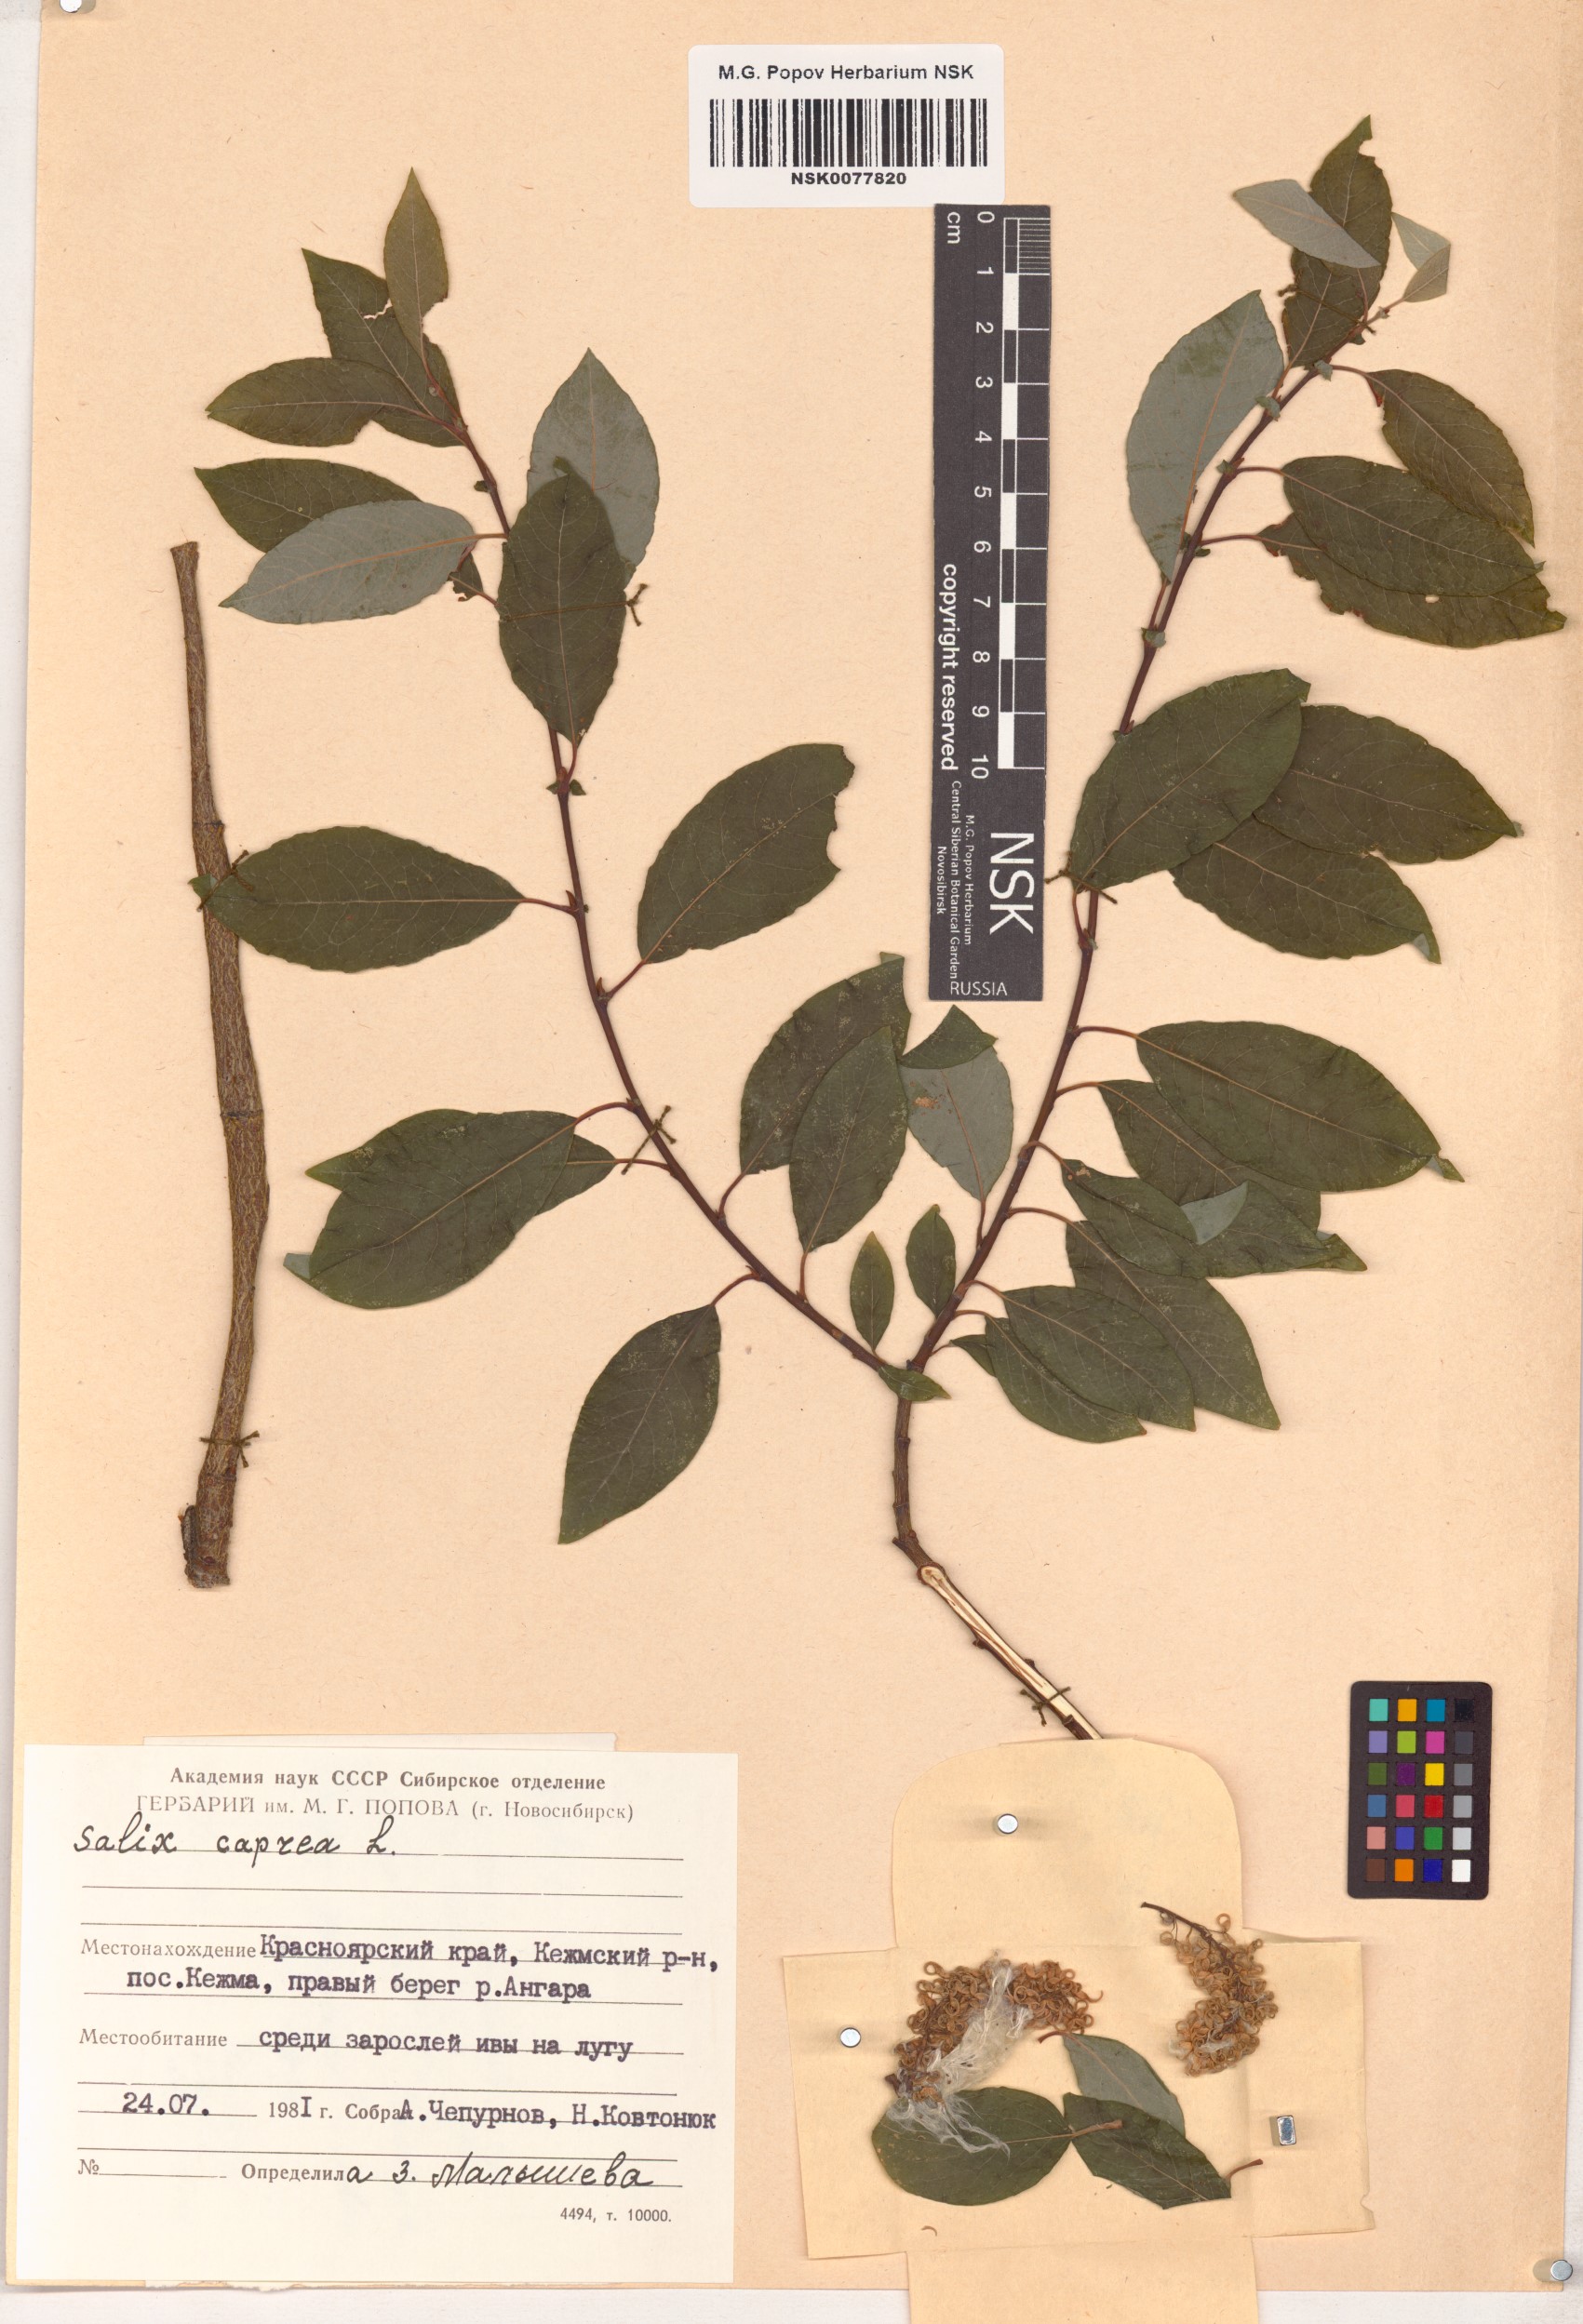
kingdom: Plantae
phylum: Tracheophyta
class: Magnoliopsida
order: Malpighiales
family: Salicaceae
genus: Salix
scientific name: Salix caprea
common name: Goat willow
